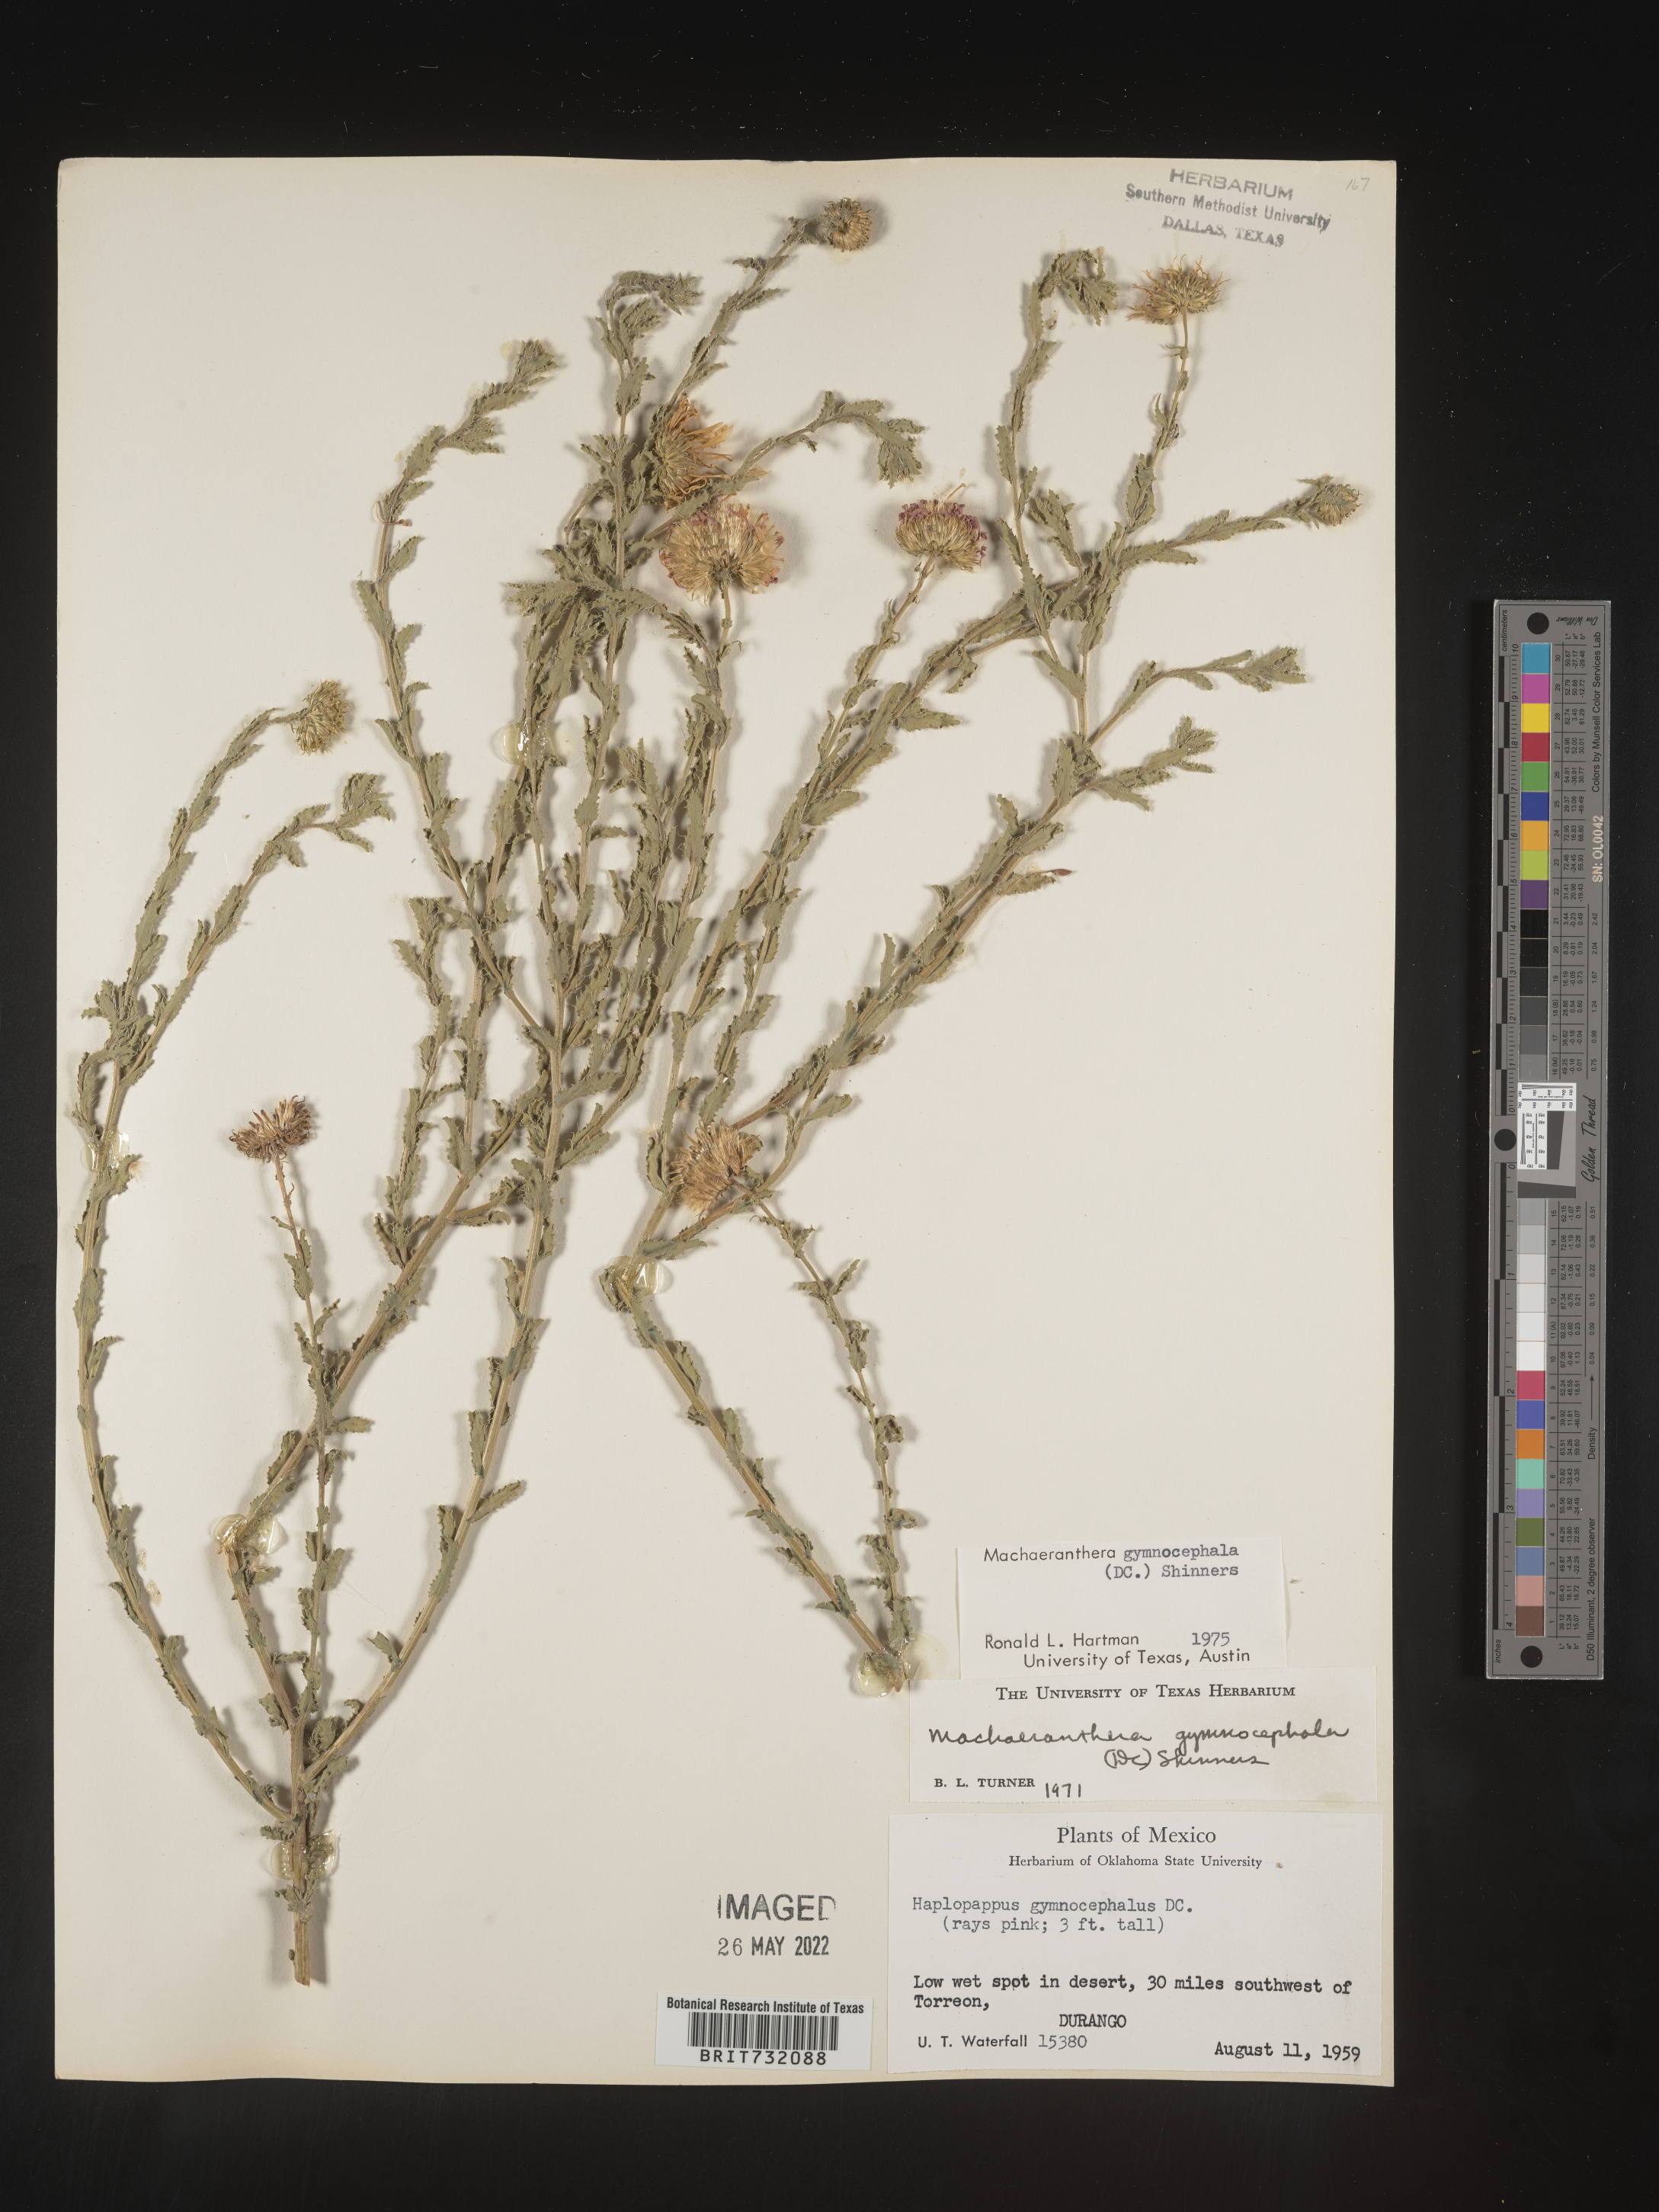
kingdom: Plantae
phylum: Tracheophyta
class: Magnoliopsida
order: Asterales
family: Asteraceae
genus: Xanthisma
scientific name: Xanthisma blephariphyllum
